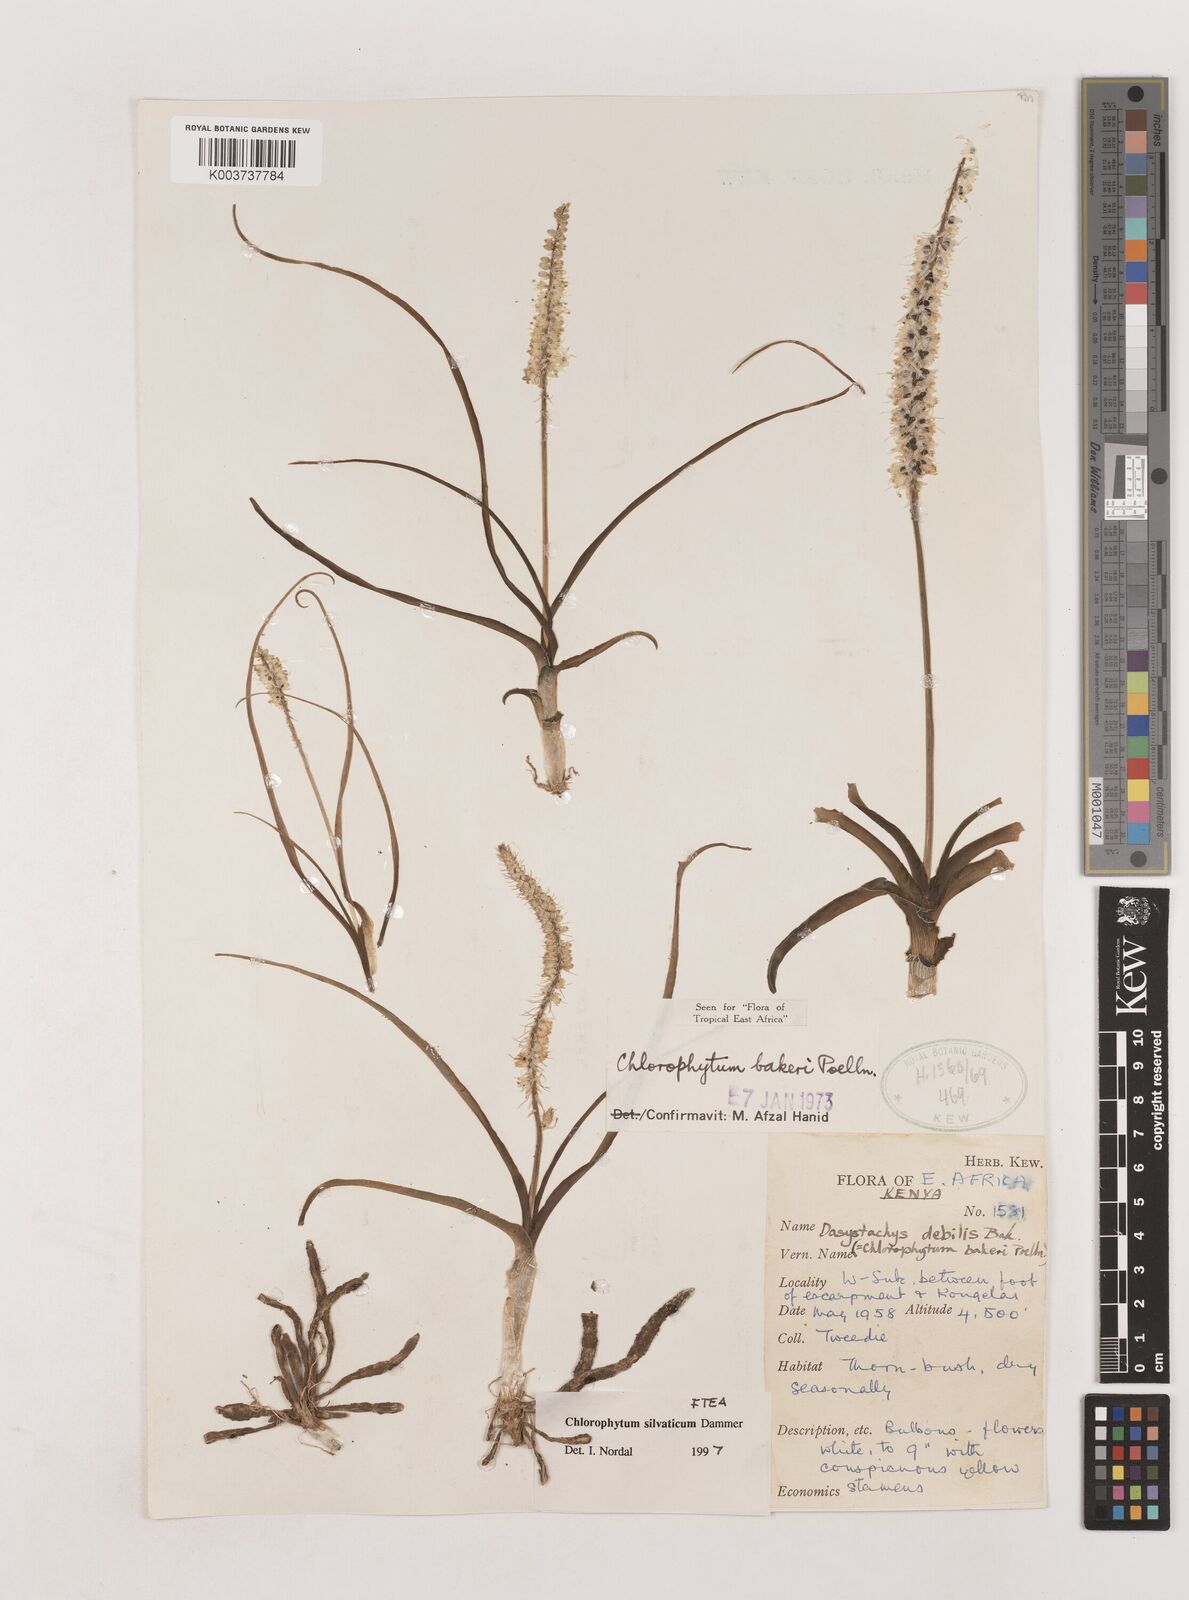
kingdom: Plantae
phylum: Tracheophyta
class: Liliopsida
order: Asparagales
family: Asparagaceae
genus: Chlorophytum
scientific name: Chlorophytum africanum
